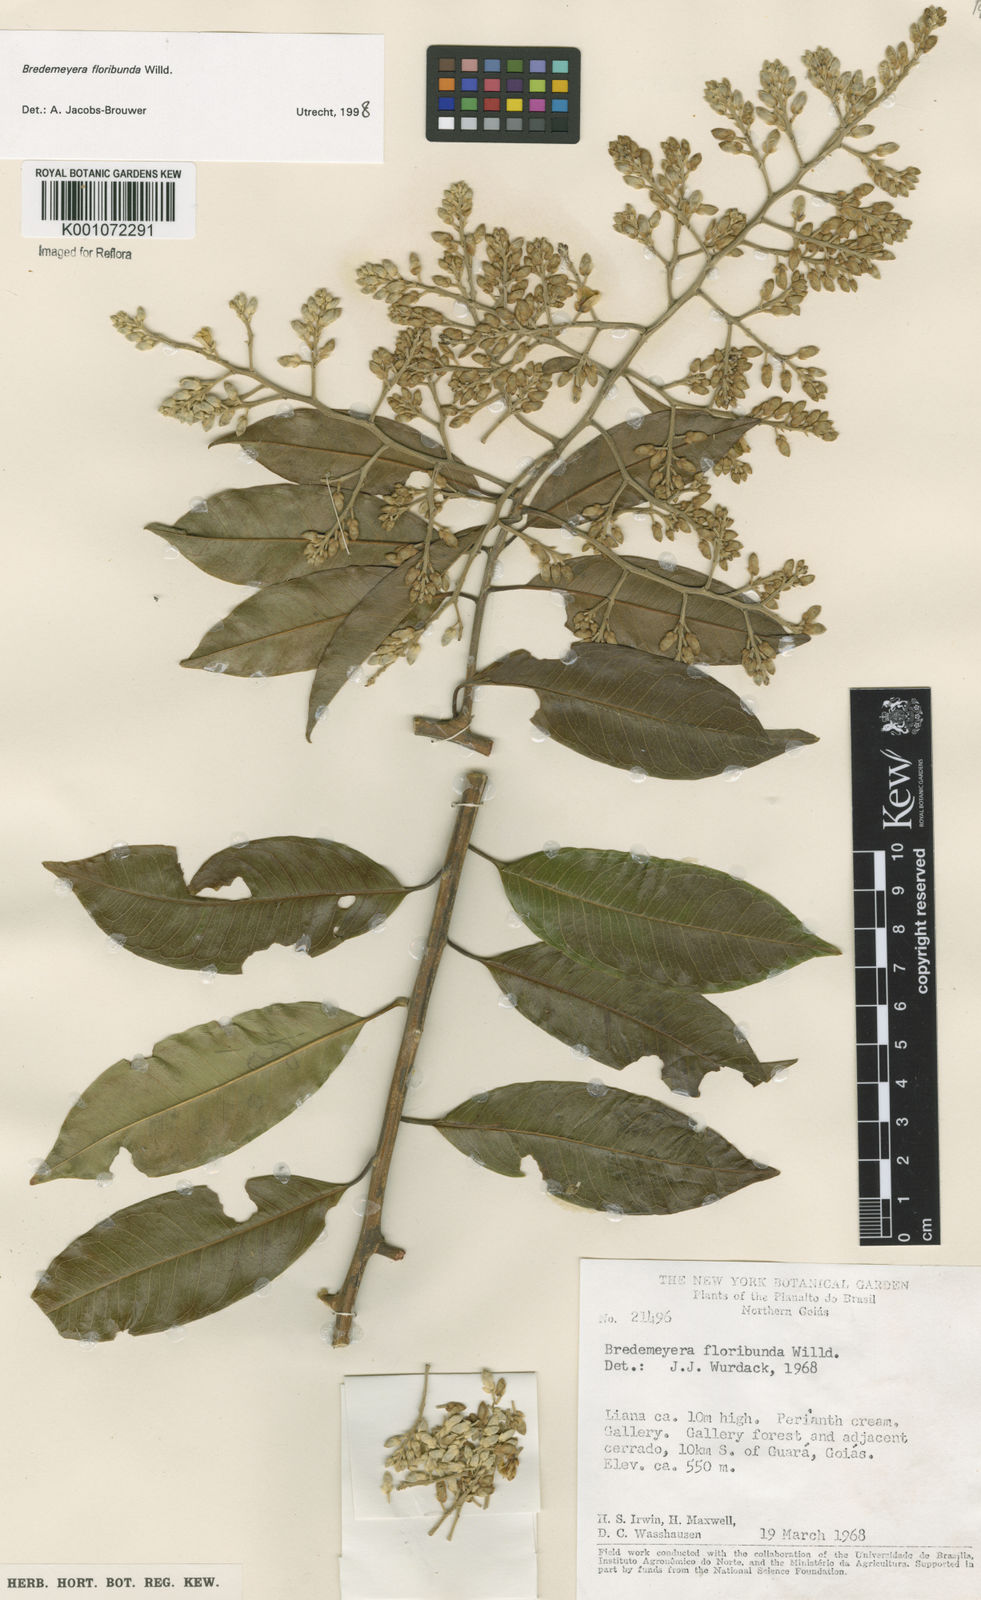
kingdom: Plantae
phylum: Tracheophyta
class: Magnoliopsida
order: Fabales
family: Polygalaceae
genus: Bredemeyera
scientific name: Bredemeyera floribunda
